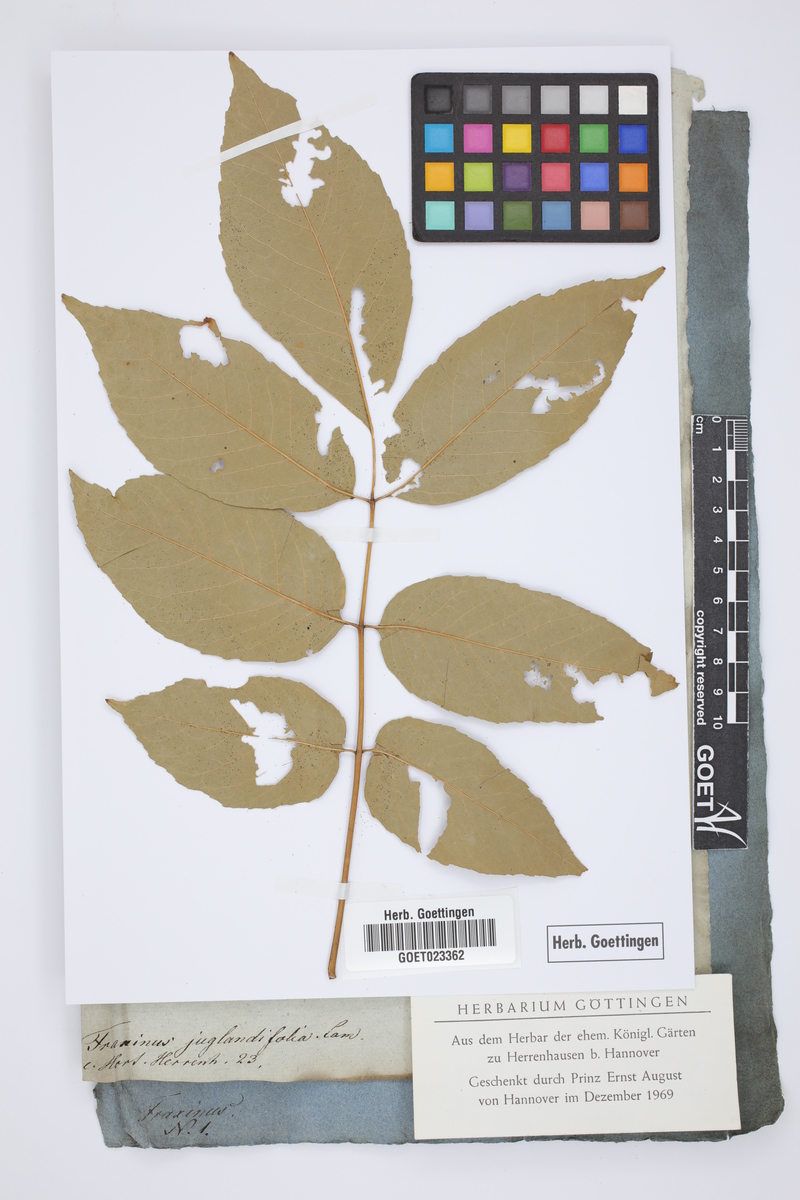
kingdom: Plantae
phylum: Tracheophyta
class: Magnoliopsida
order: Lamiales
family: Oleaceae
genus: Fraxinus
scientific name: Fraxinus americana
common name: White ash
